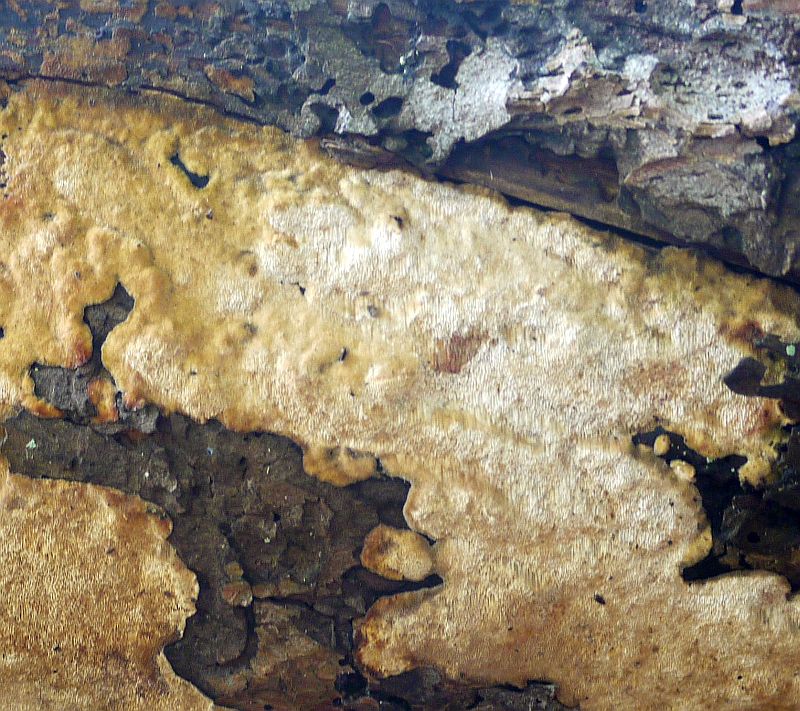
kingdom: Fungi
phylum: Basidiomycota
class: Agaricomycetes
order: Polyporales
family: Fomitopsidaceae
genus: Antrodia
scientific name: Antrodia sinuosa
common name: tømmer-sejporesvamp
